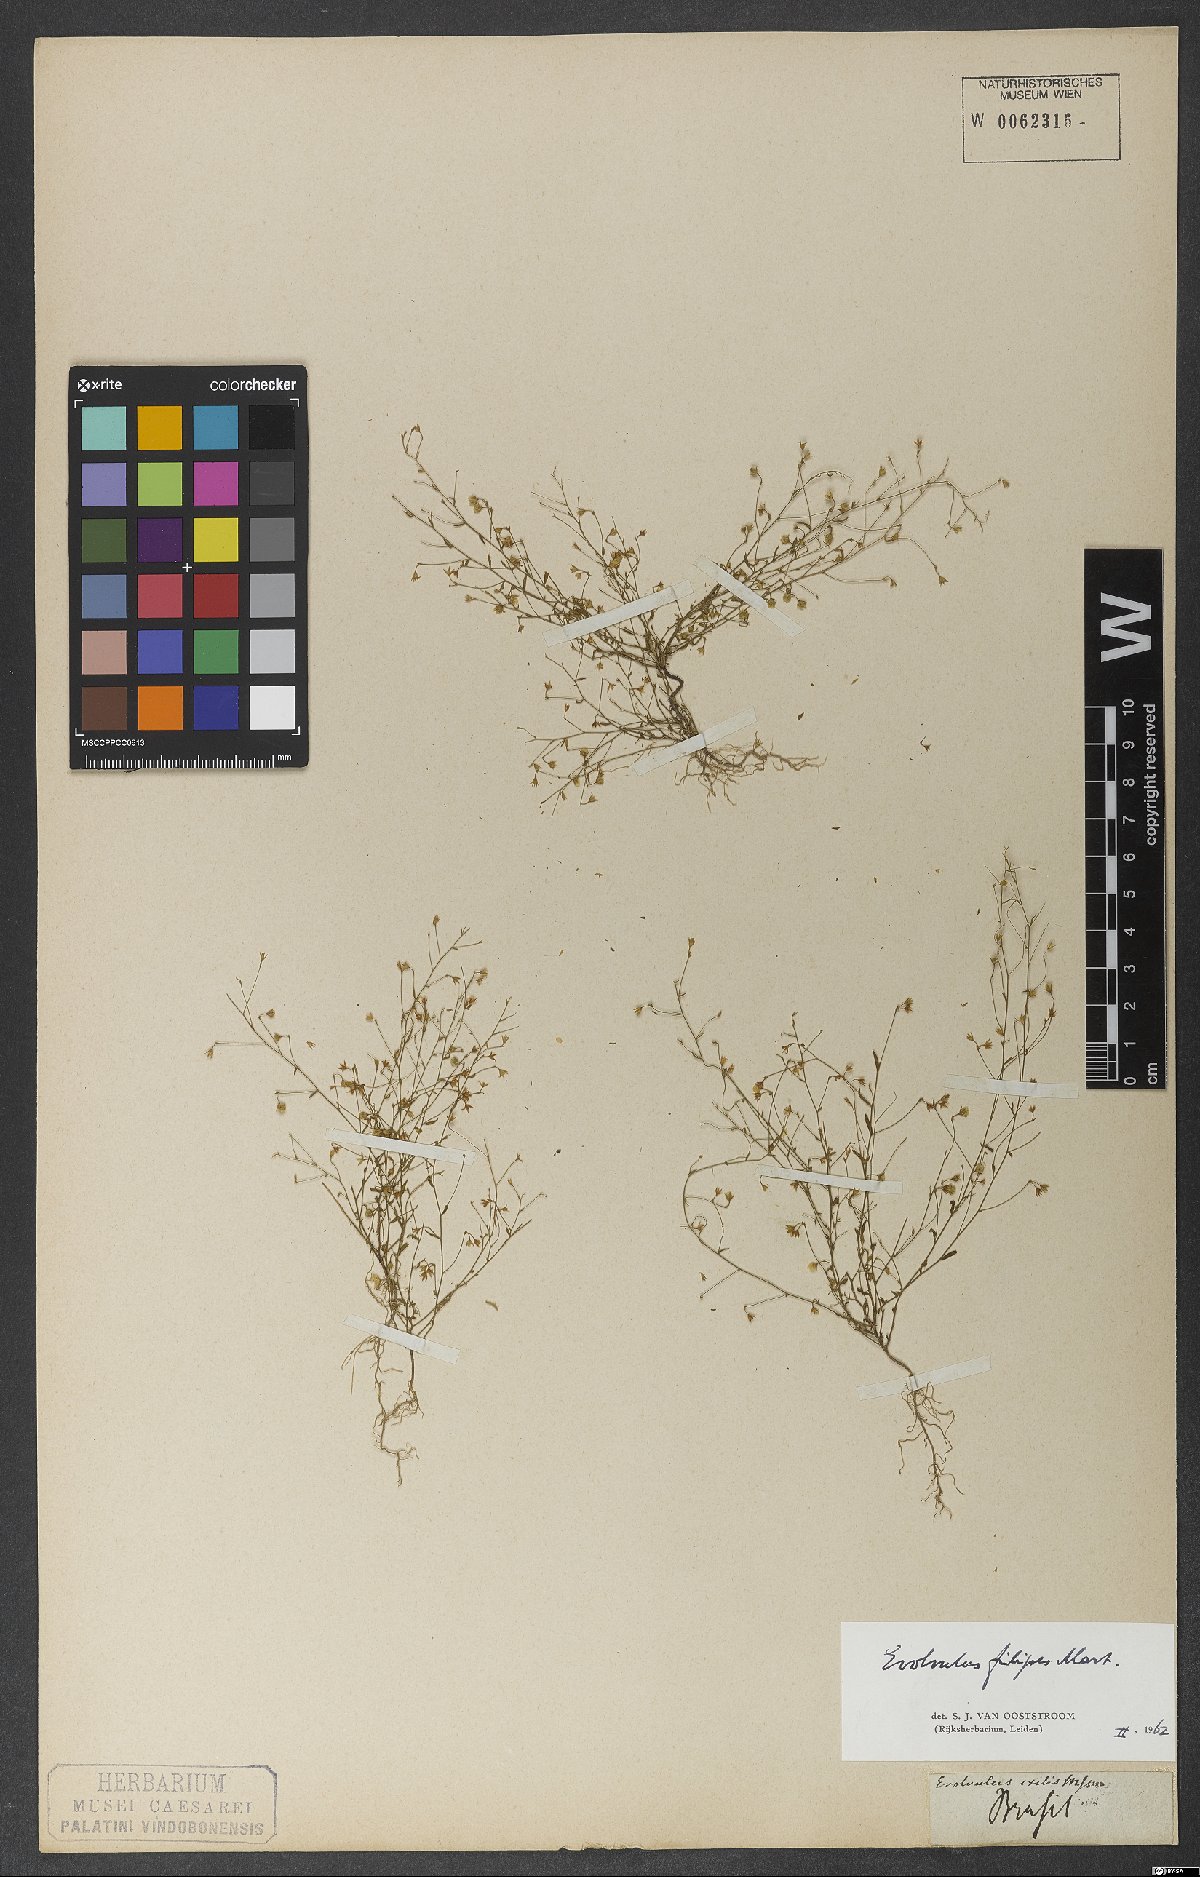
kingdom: Plantae
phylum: Tracheophyta
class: Magnoliopsida
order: Solanales
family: Convolvulaceae
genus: Evolvulus
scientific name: Evolvulus filipes
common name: Maryland dwarf morning-glory
